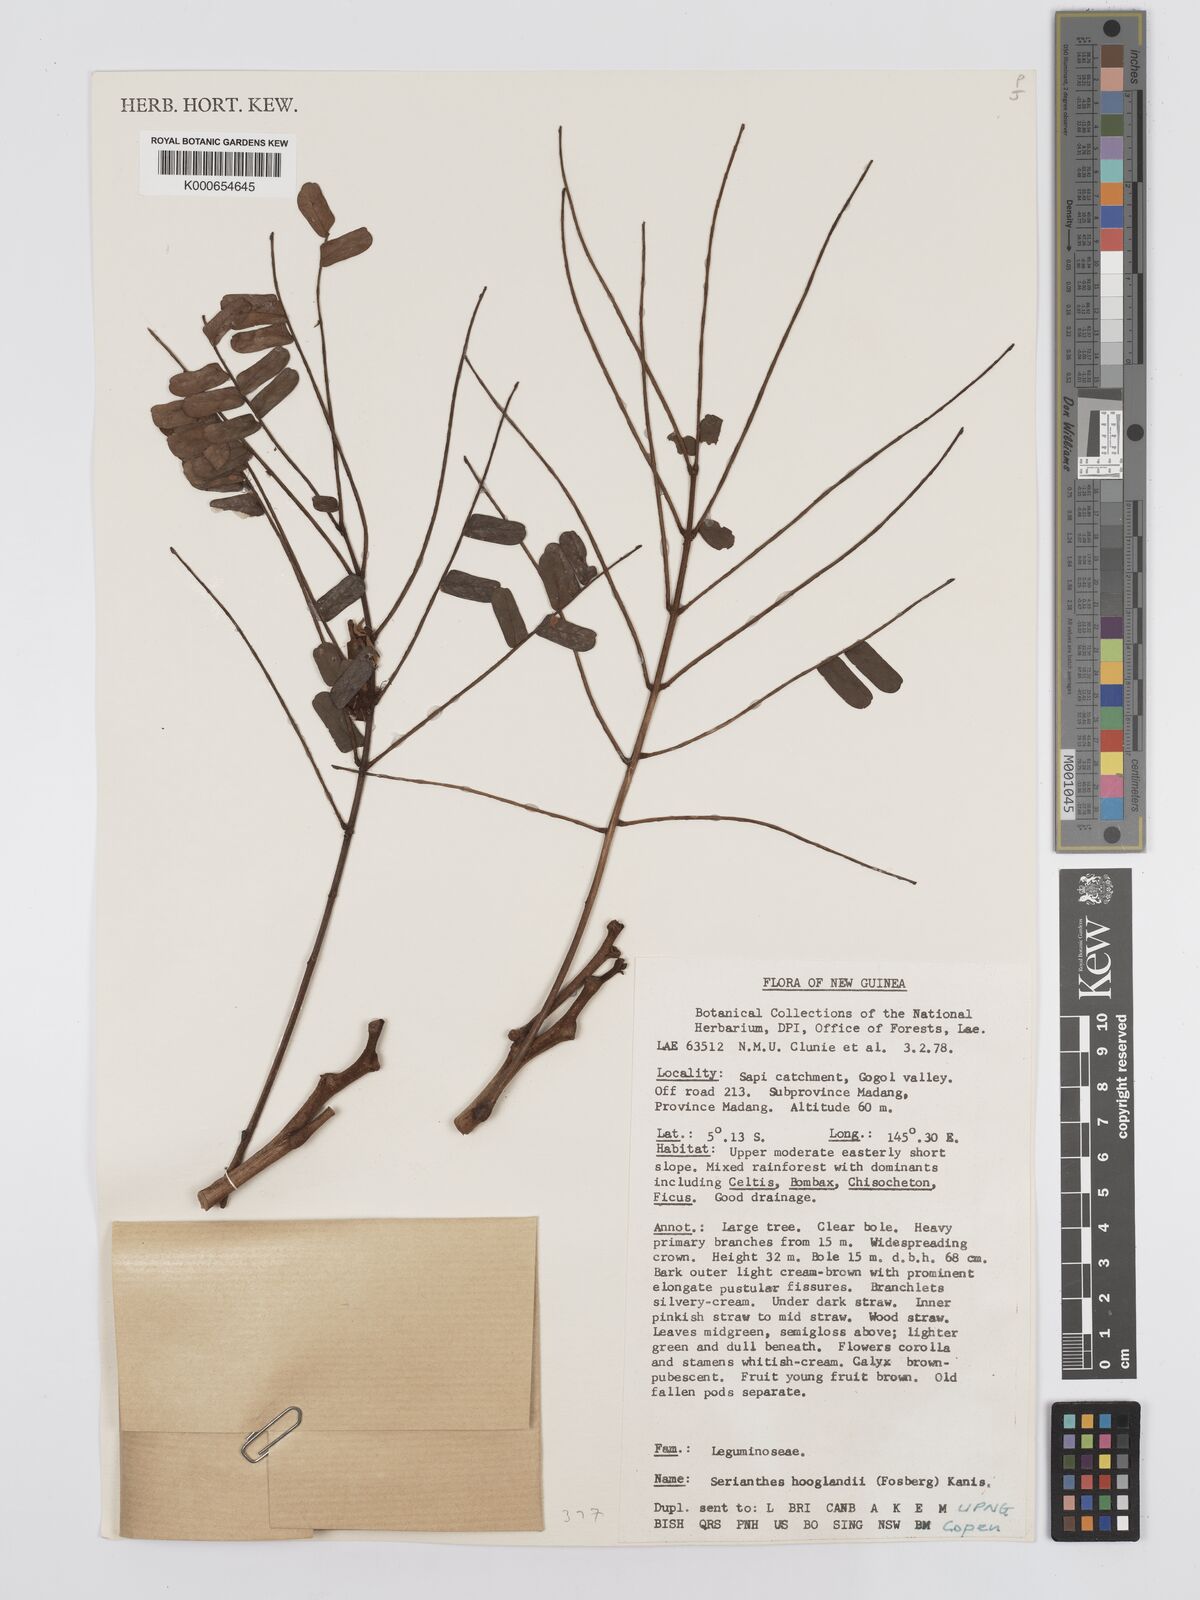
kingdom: Plantae
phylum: Tracheophyta
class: Magnoliopsida
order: Fabales
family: Fabaceae
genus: Serianthes
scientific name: Serianthes hooglandii
